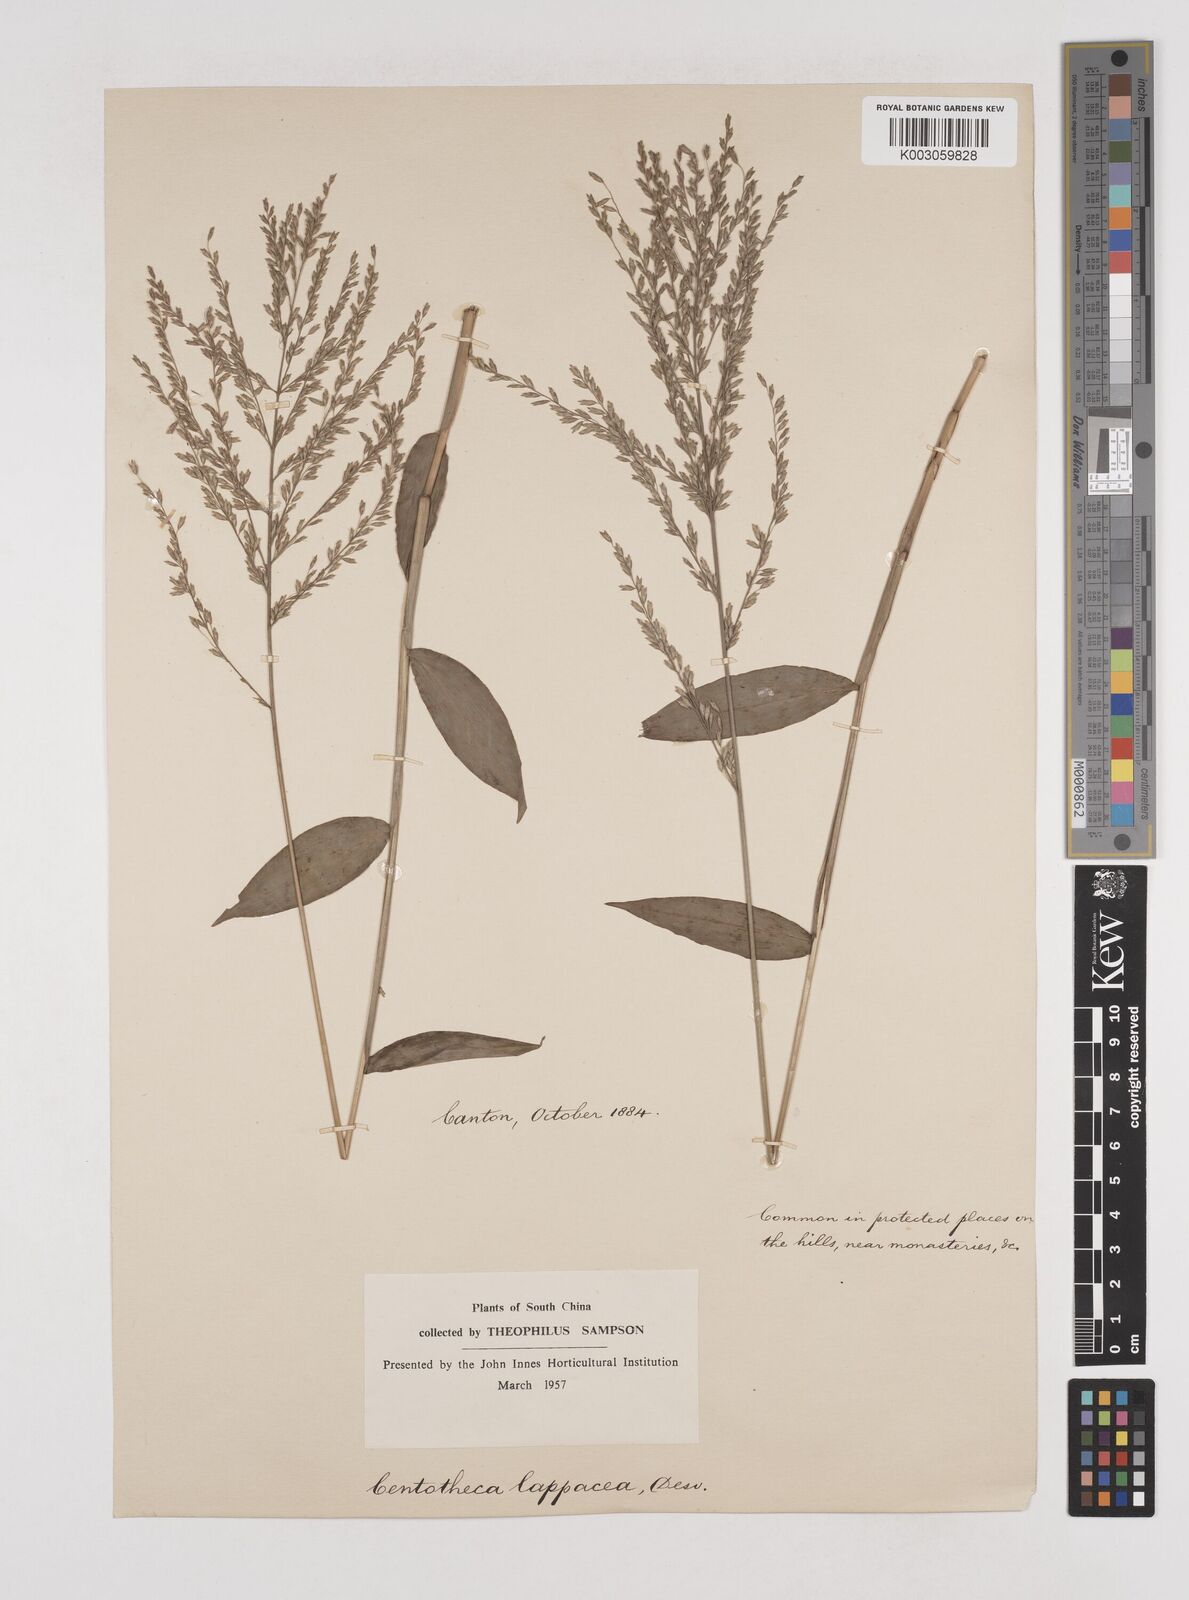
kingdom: Plantae
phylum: Tracheophyta
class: Liliopsida
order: Poales
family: Poaceae
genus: Centotheca
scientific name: Centotheca lappacea
